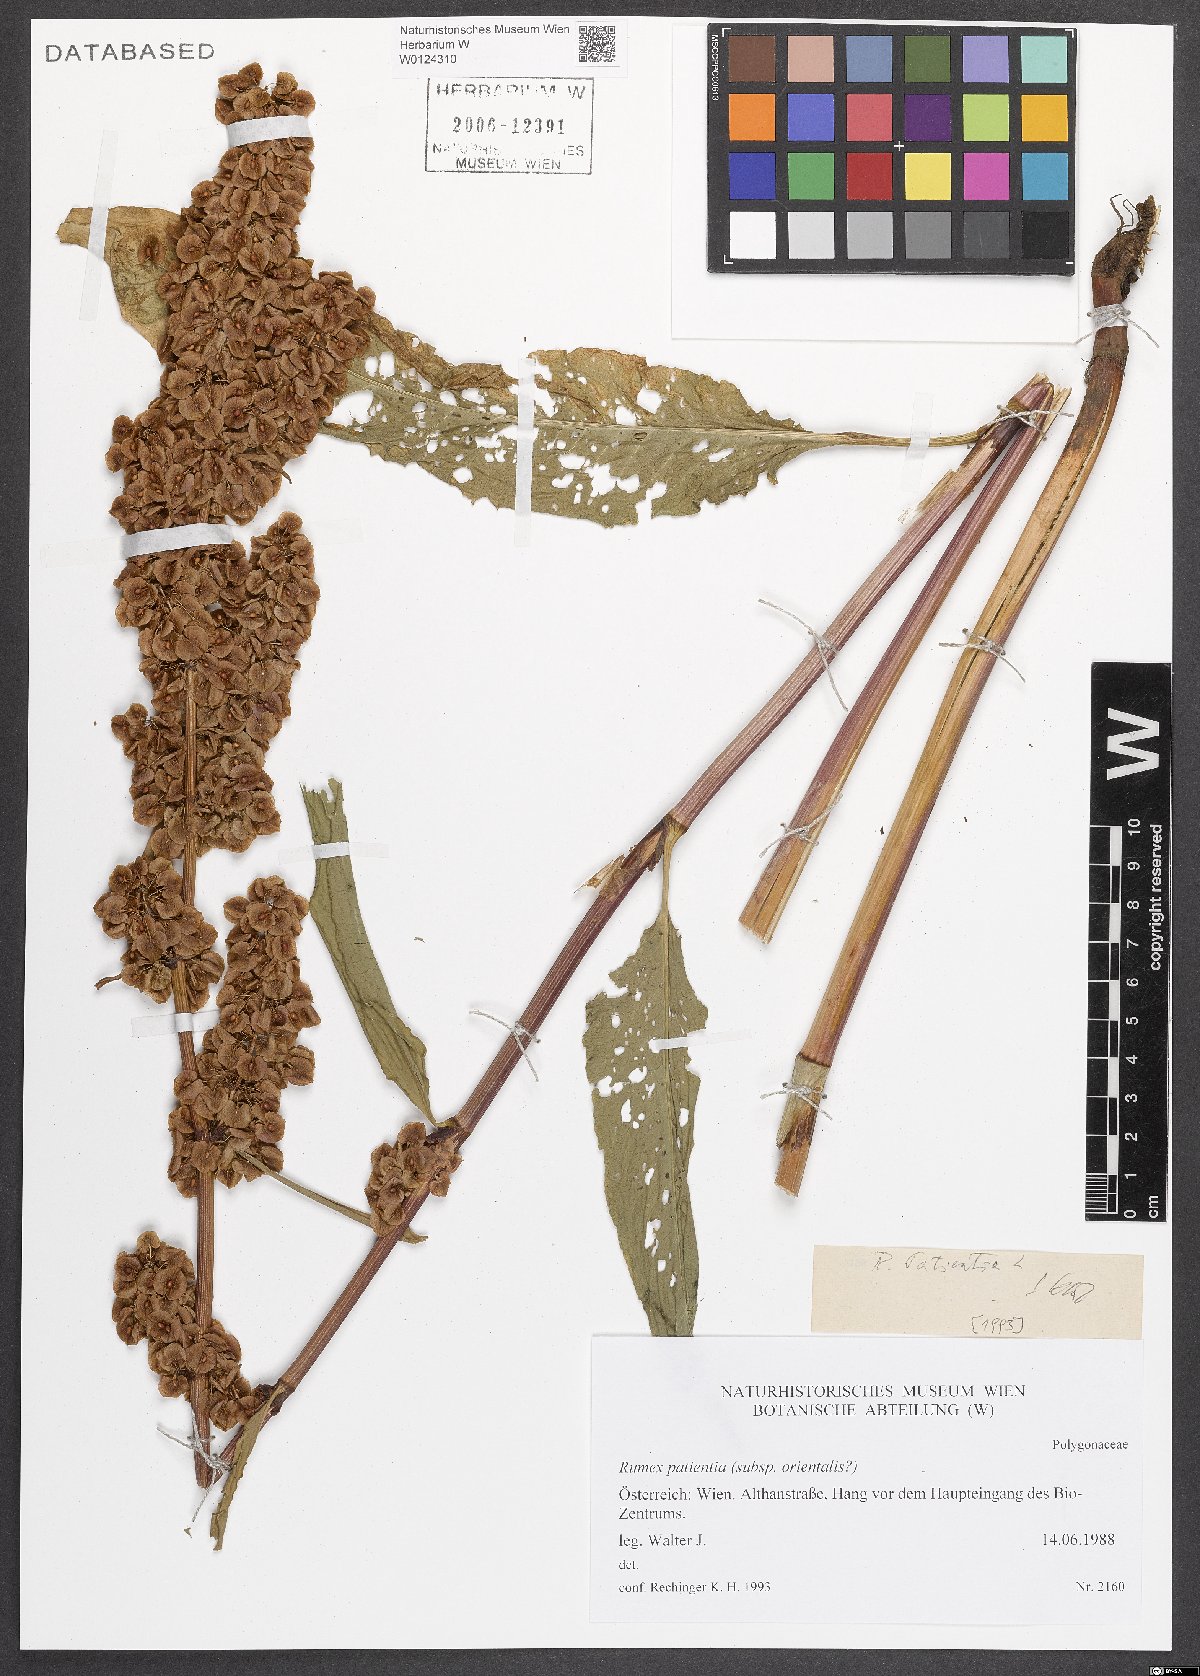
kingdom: Plantae
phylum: Tracheophyta
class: Magnoliopsida
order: Caryophyllales
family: Polygonaceae
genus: Rumex
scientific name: Rumex patientia
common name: Patience dock
